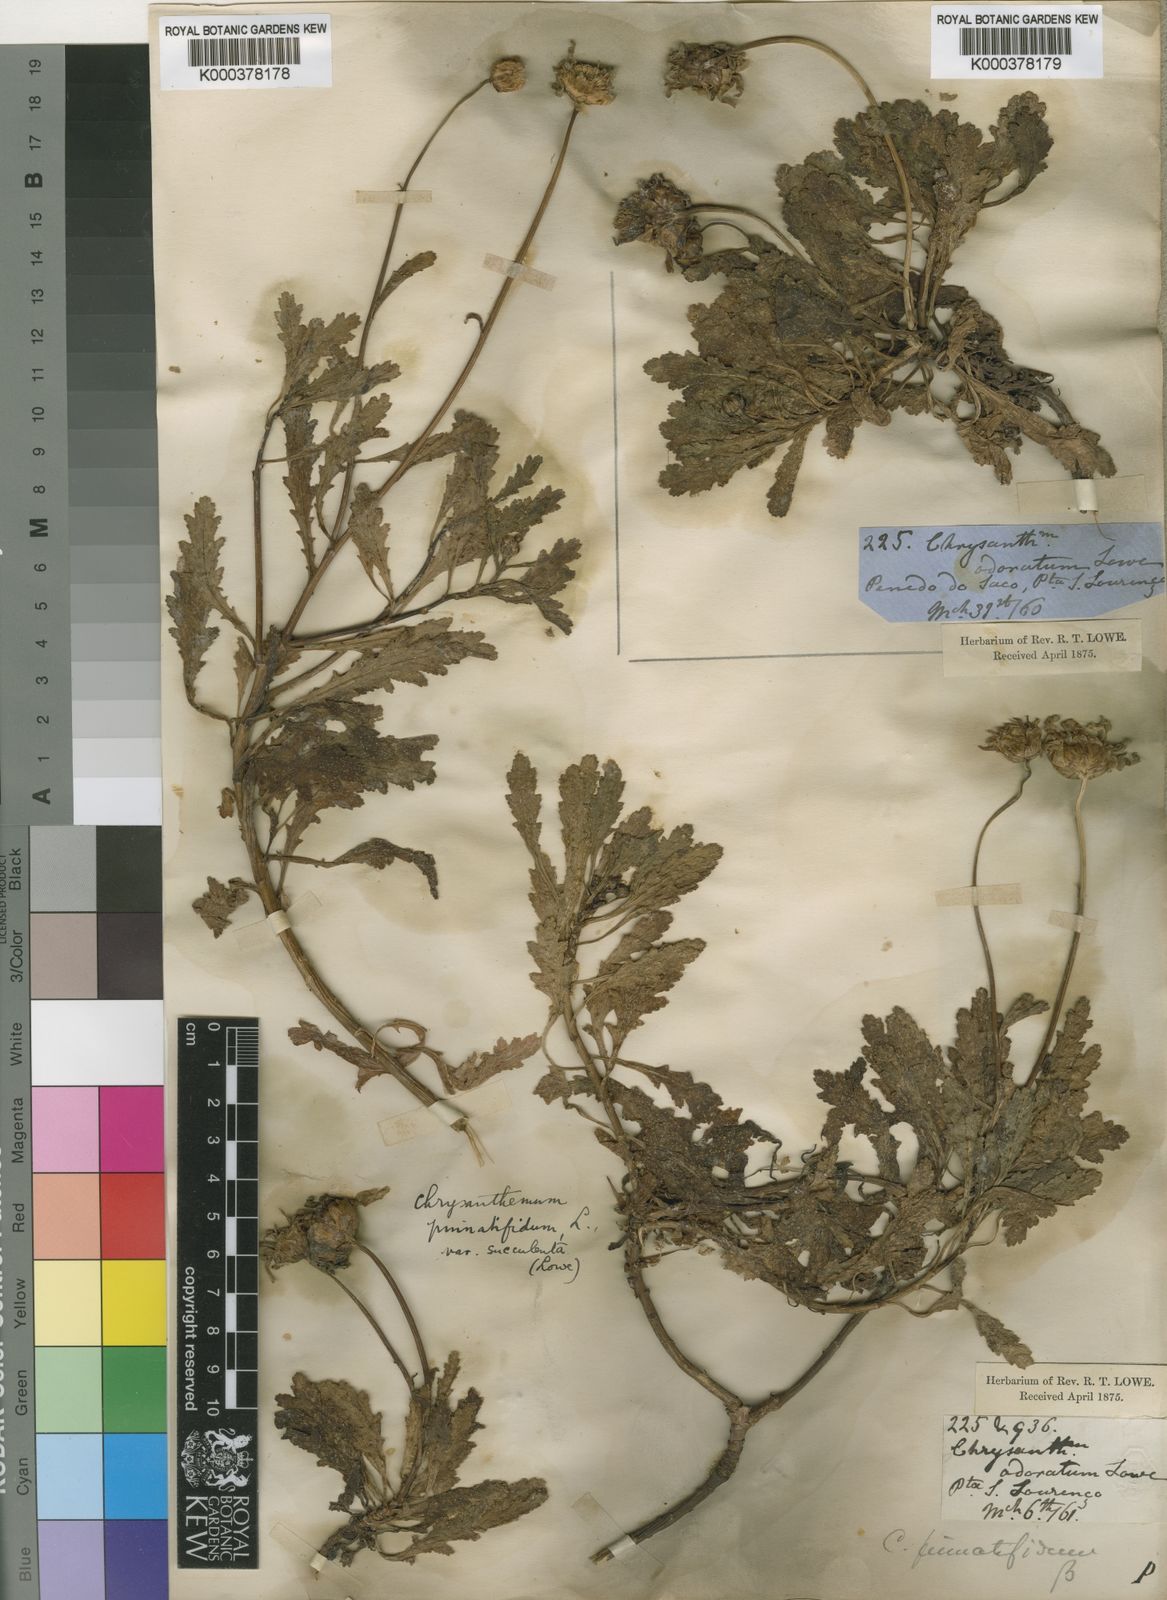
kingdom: Plantae
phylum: Tracheophyta
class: Magnoliopsida
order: Asterales
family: Asteraceae
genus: Argyranthemum
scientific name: Argyranthemum pinnatifidum
